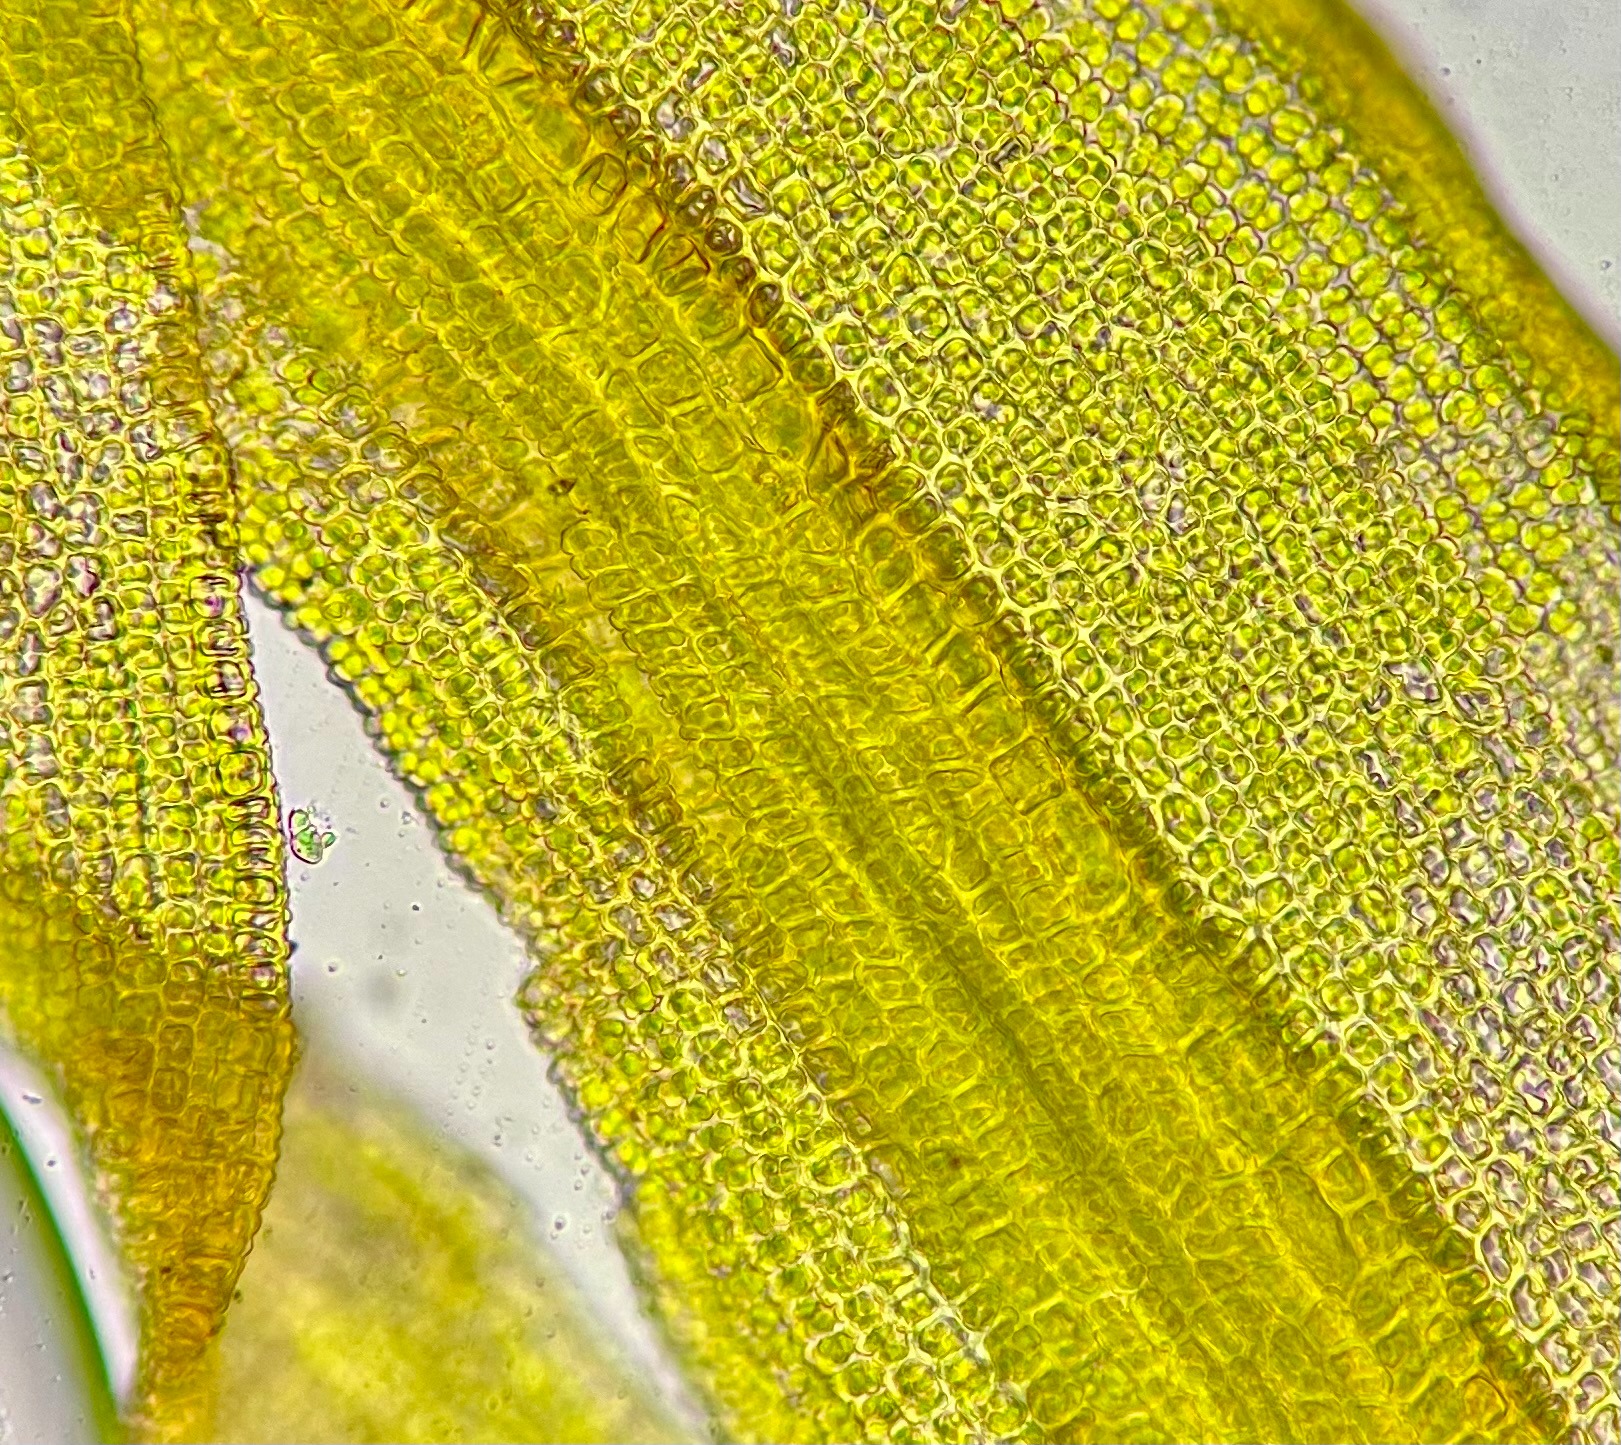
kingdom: Plantae
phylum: Bryophyta
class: Bryopsida
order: Pottiales
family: Pottiaceae
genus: Vinealobryum
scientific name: Vinealobryum insulanum
